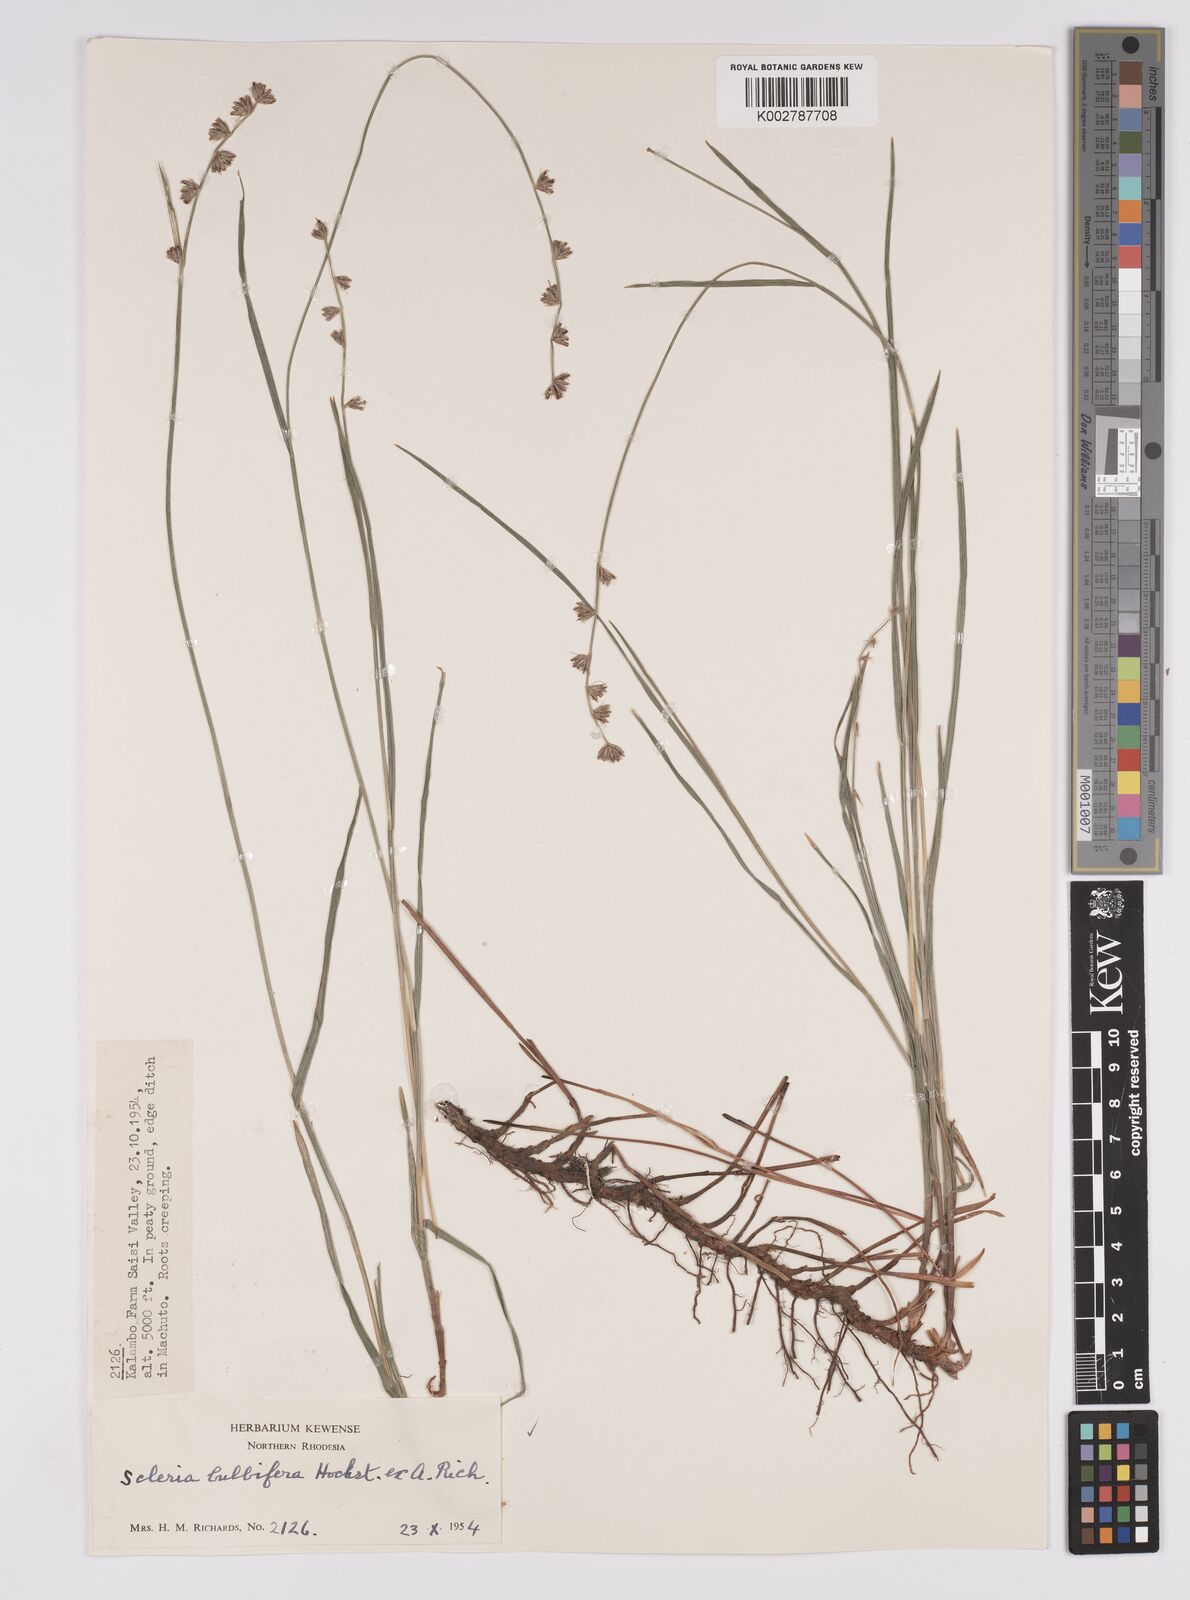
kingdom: Plantae
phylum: Tracheophyta
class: Liliopsida
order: Poales
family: Cyperaceae
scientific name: Cyperaceae
